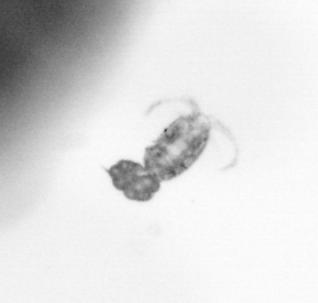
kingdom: Animalia
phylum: Arthropoda
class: Copepoda
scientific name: Copepoda
